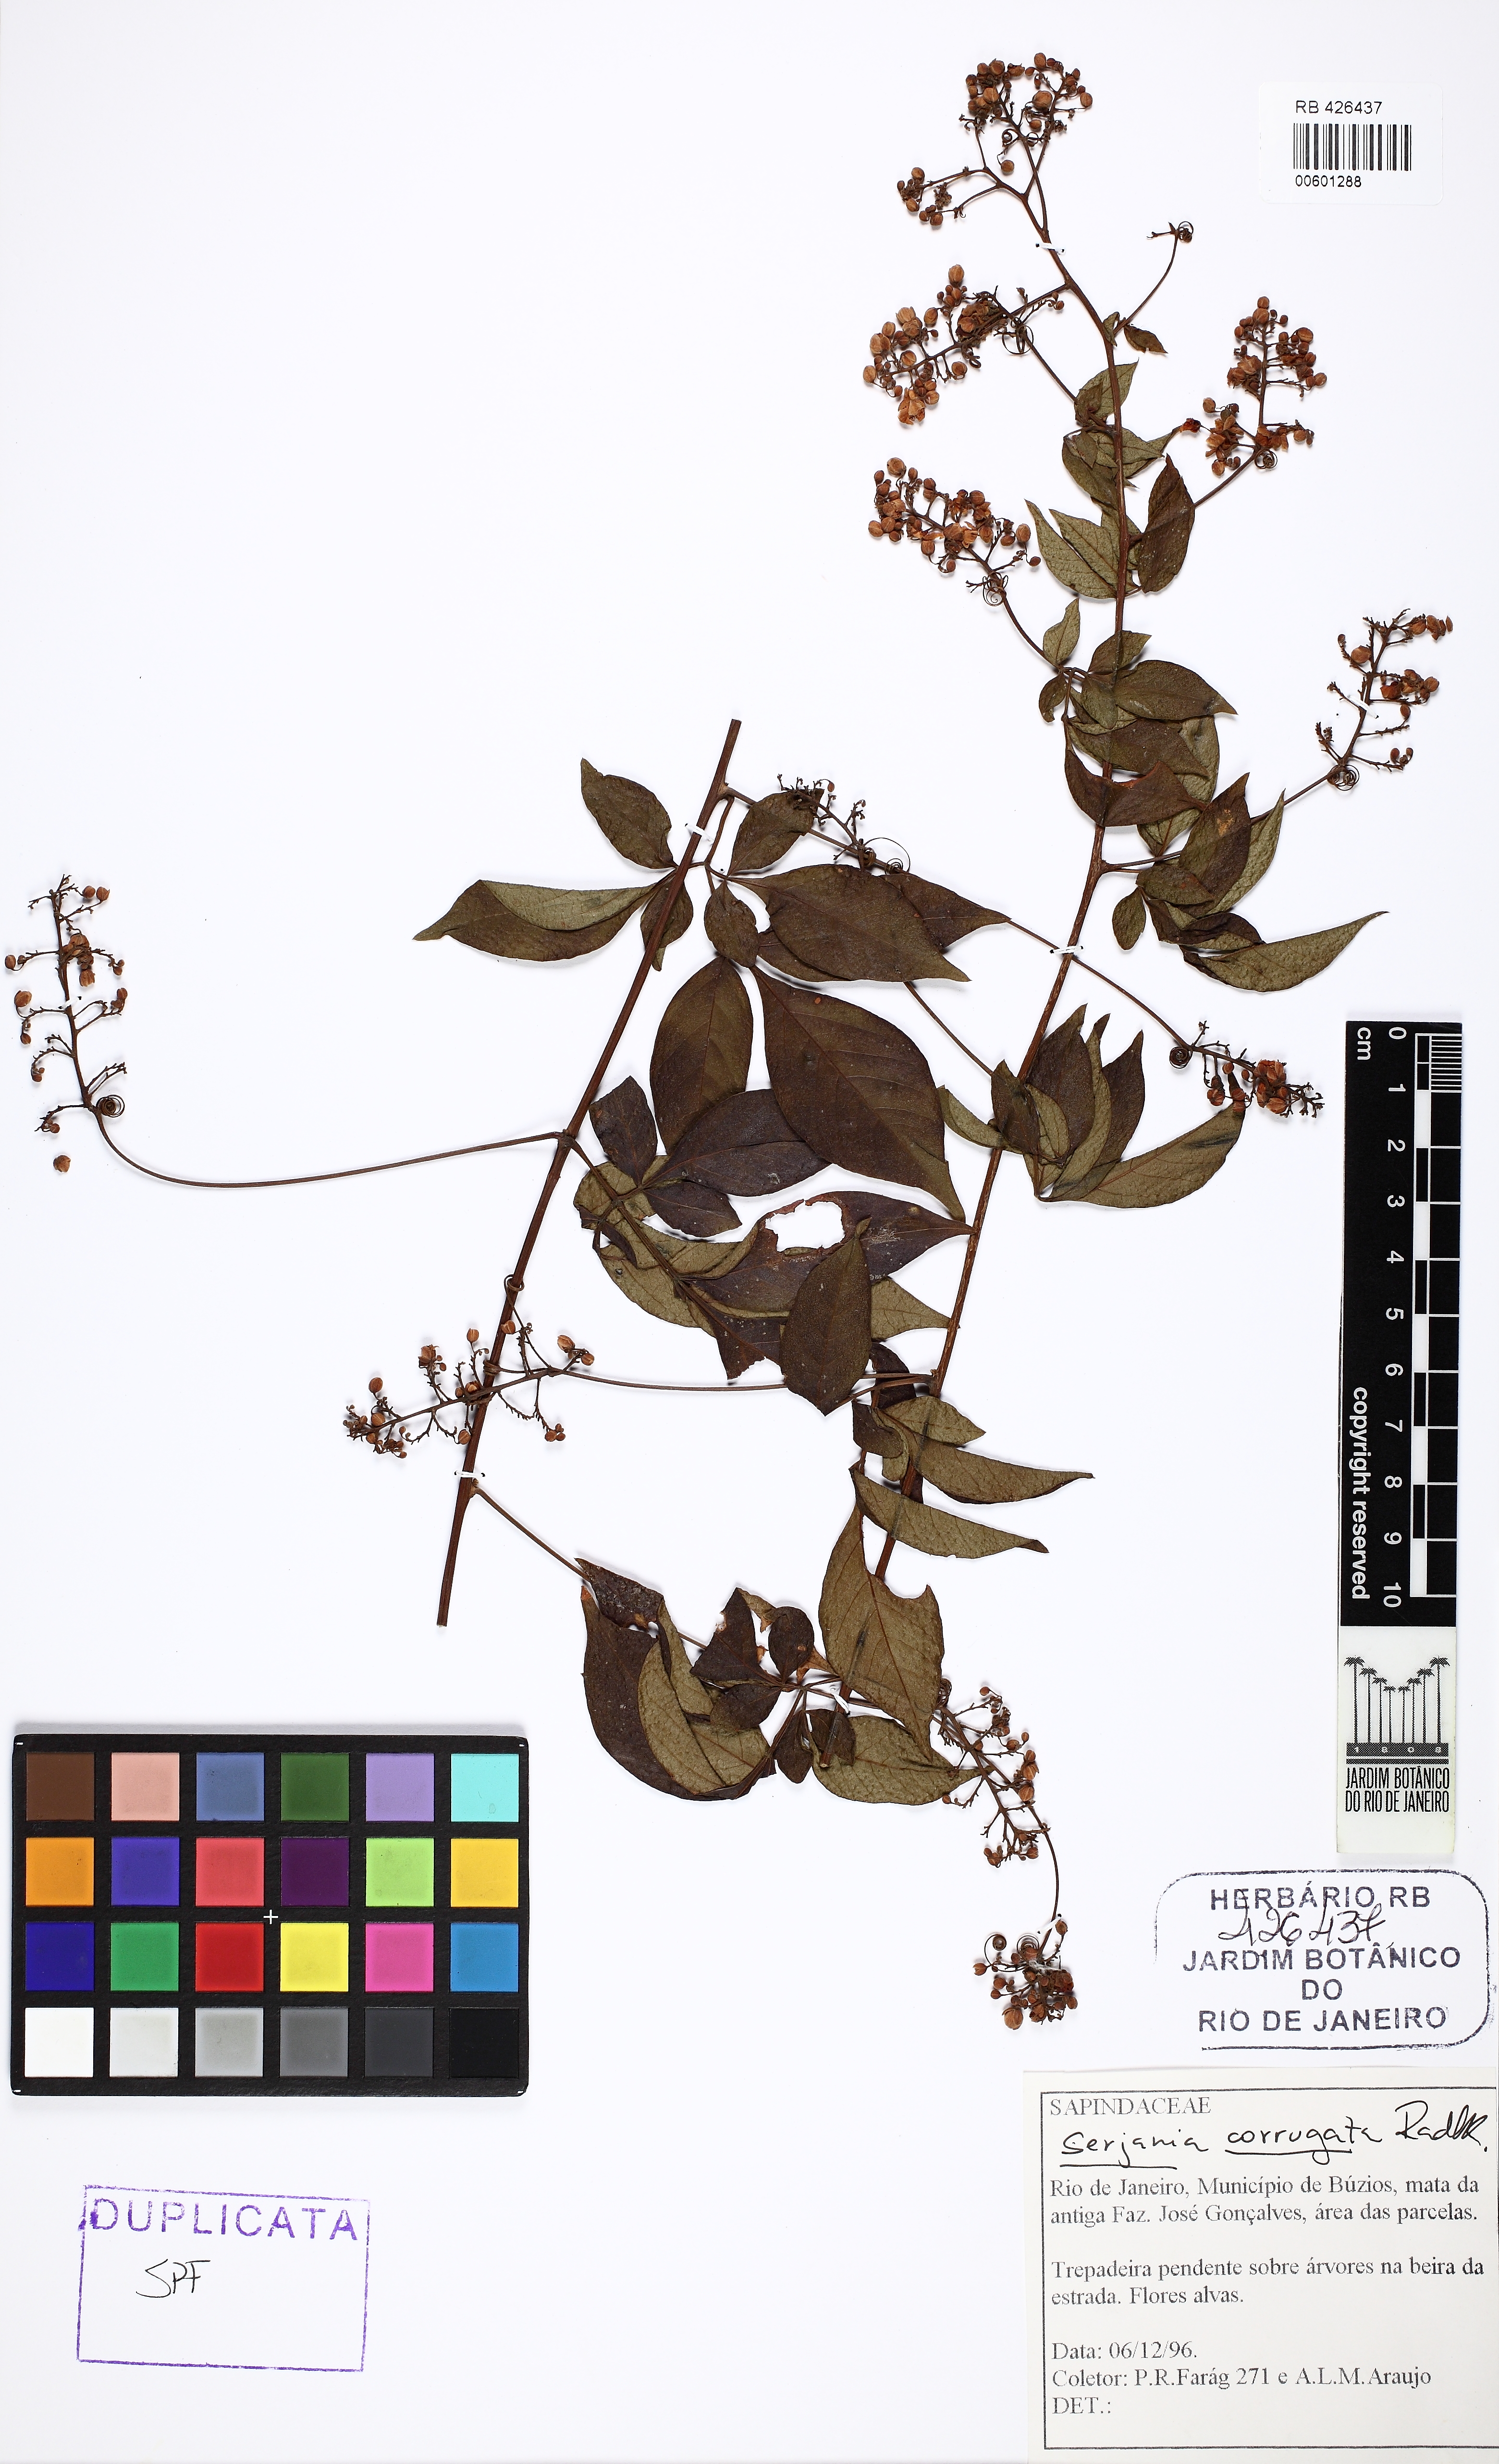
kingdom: Plantae
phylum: Tracheophyta
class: Magnoliopsida
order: Sapindales
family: Sapindaceae
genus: Serjania
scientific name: Serjania corrugata
